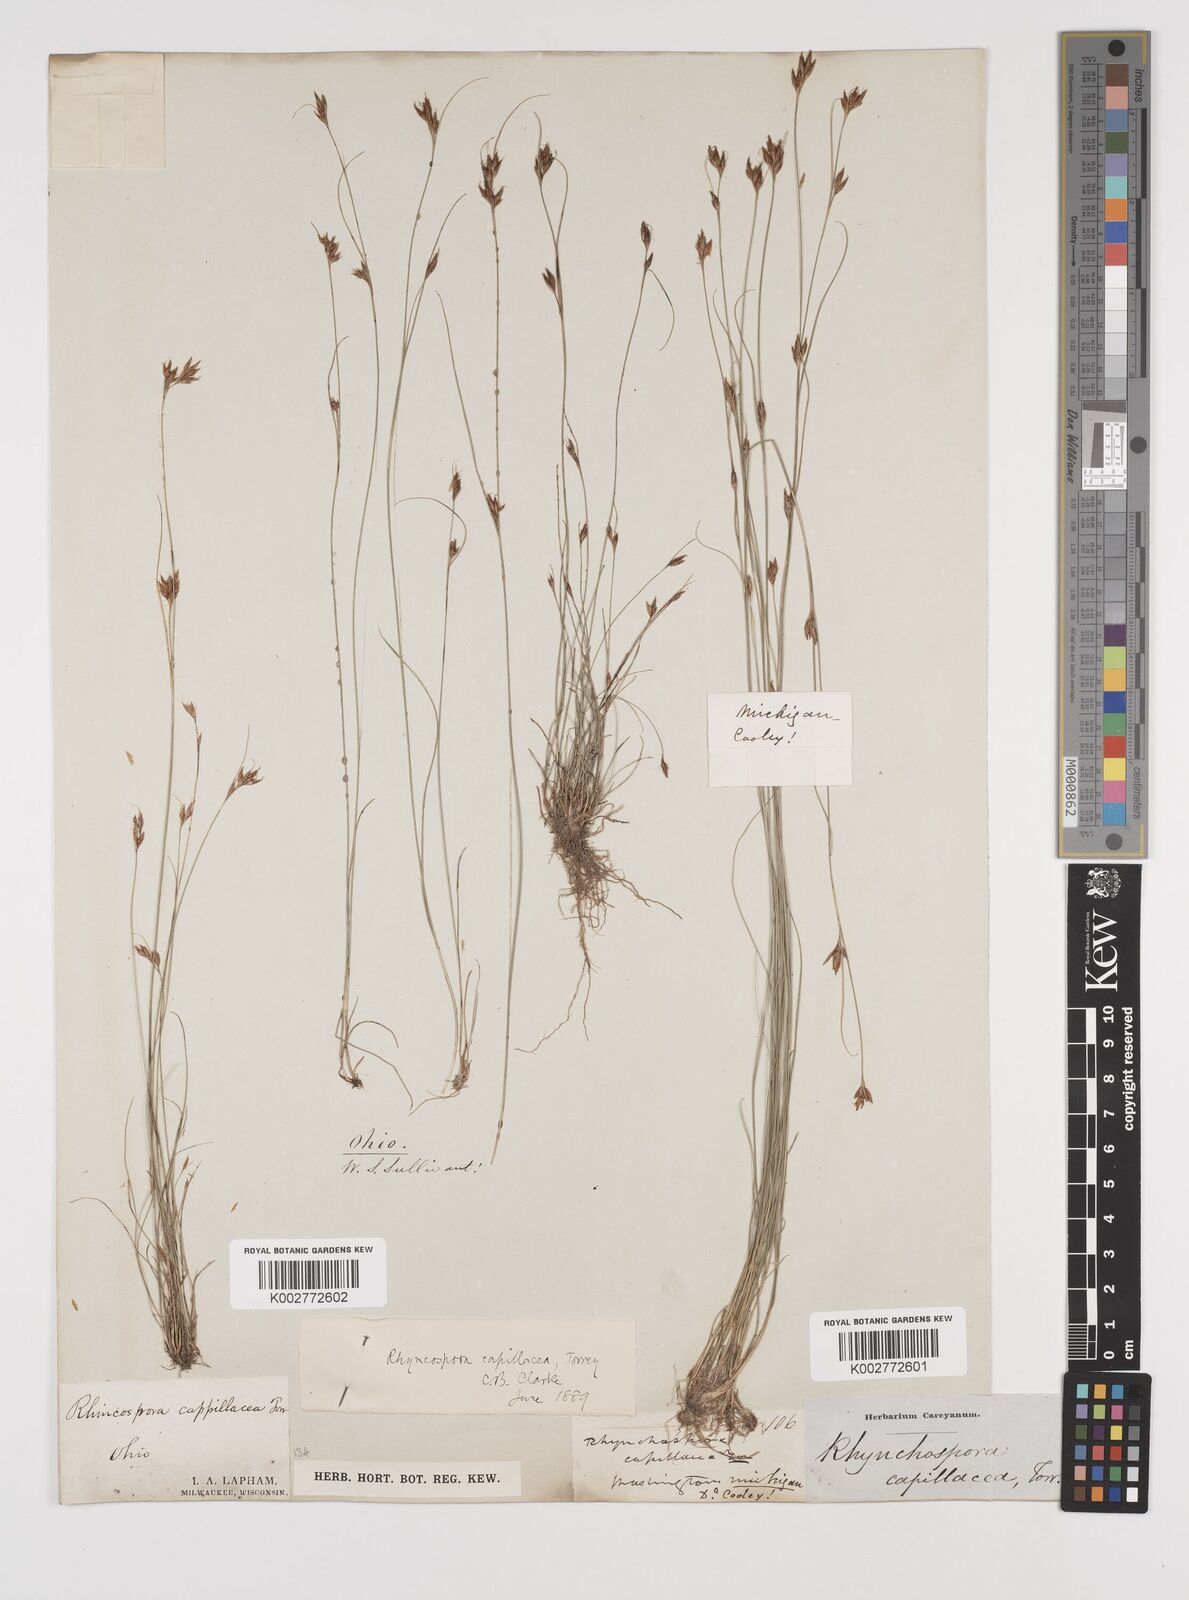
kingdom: Plantae
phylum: Tracheophyta
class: Liliopsida
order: Poales
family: Cyperaceae
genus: Rhynchospora
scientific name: Rhynchospora capillacea
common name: Capillary beakrush
